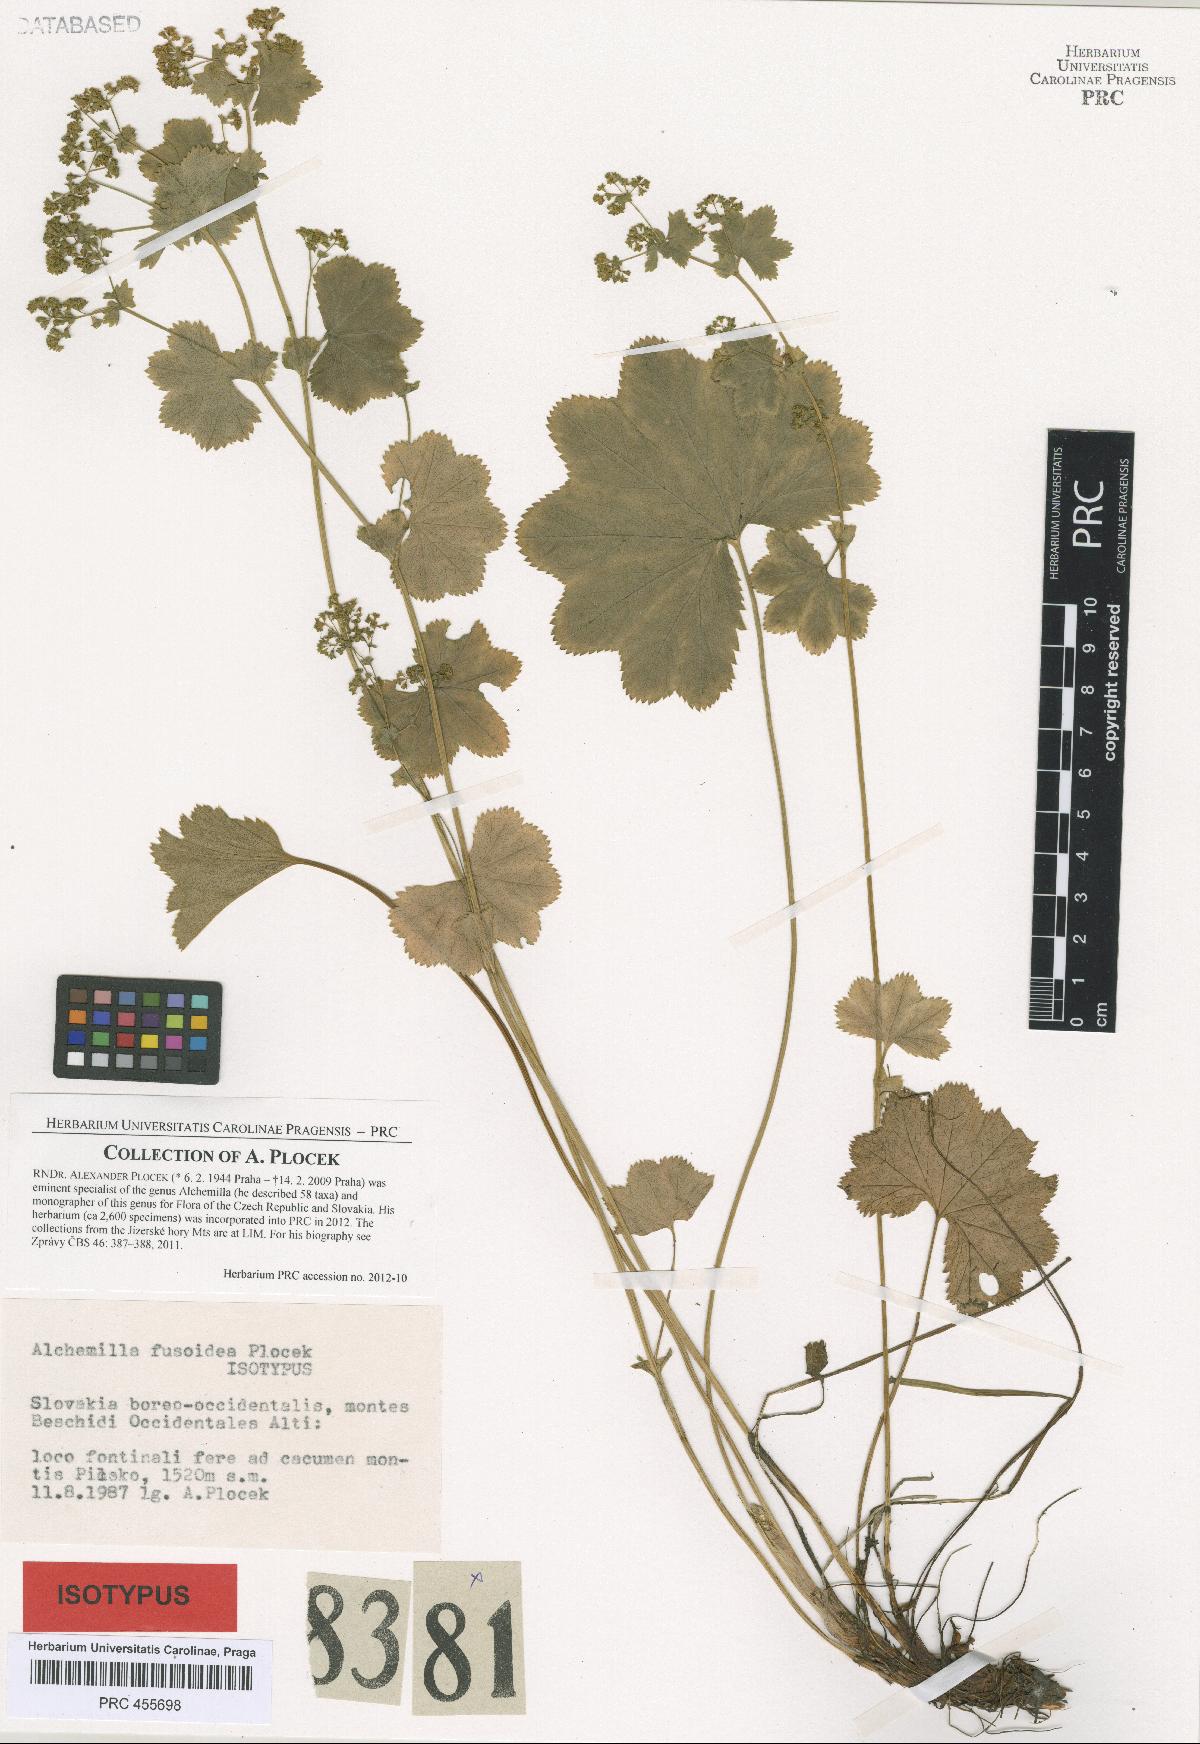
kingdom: Plantae
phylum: Tracheophyta
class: Magnoliopsida
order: Rosales
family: Rosaceae
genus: Alchemilla
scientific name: Alchemilla fusoidea
